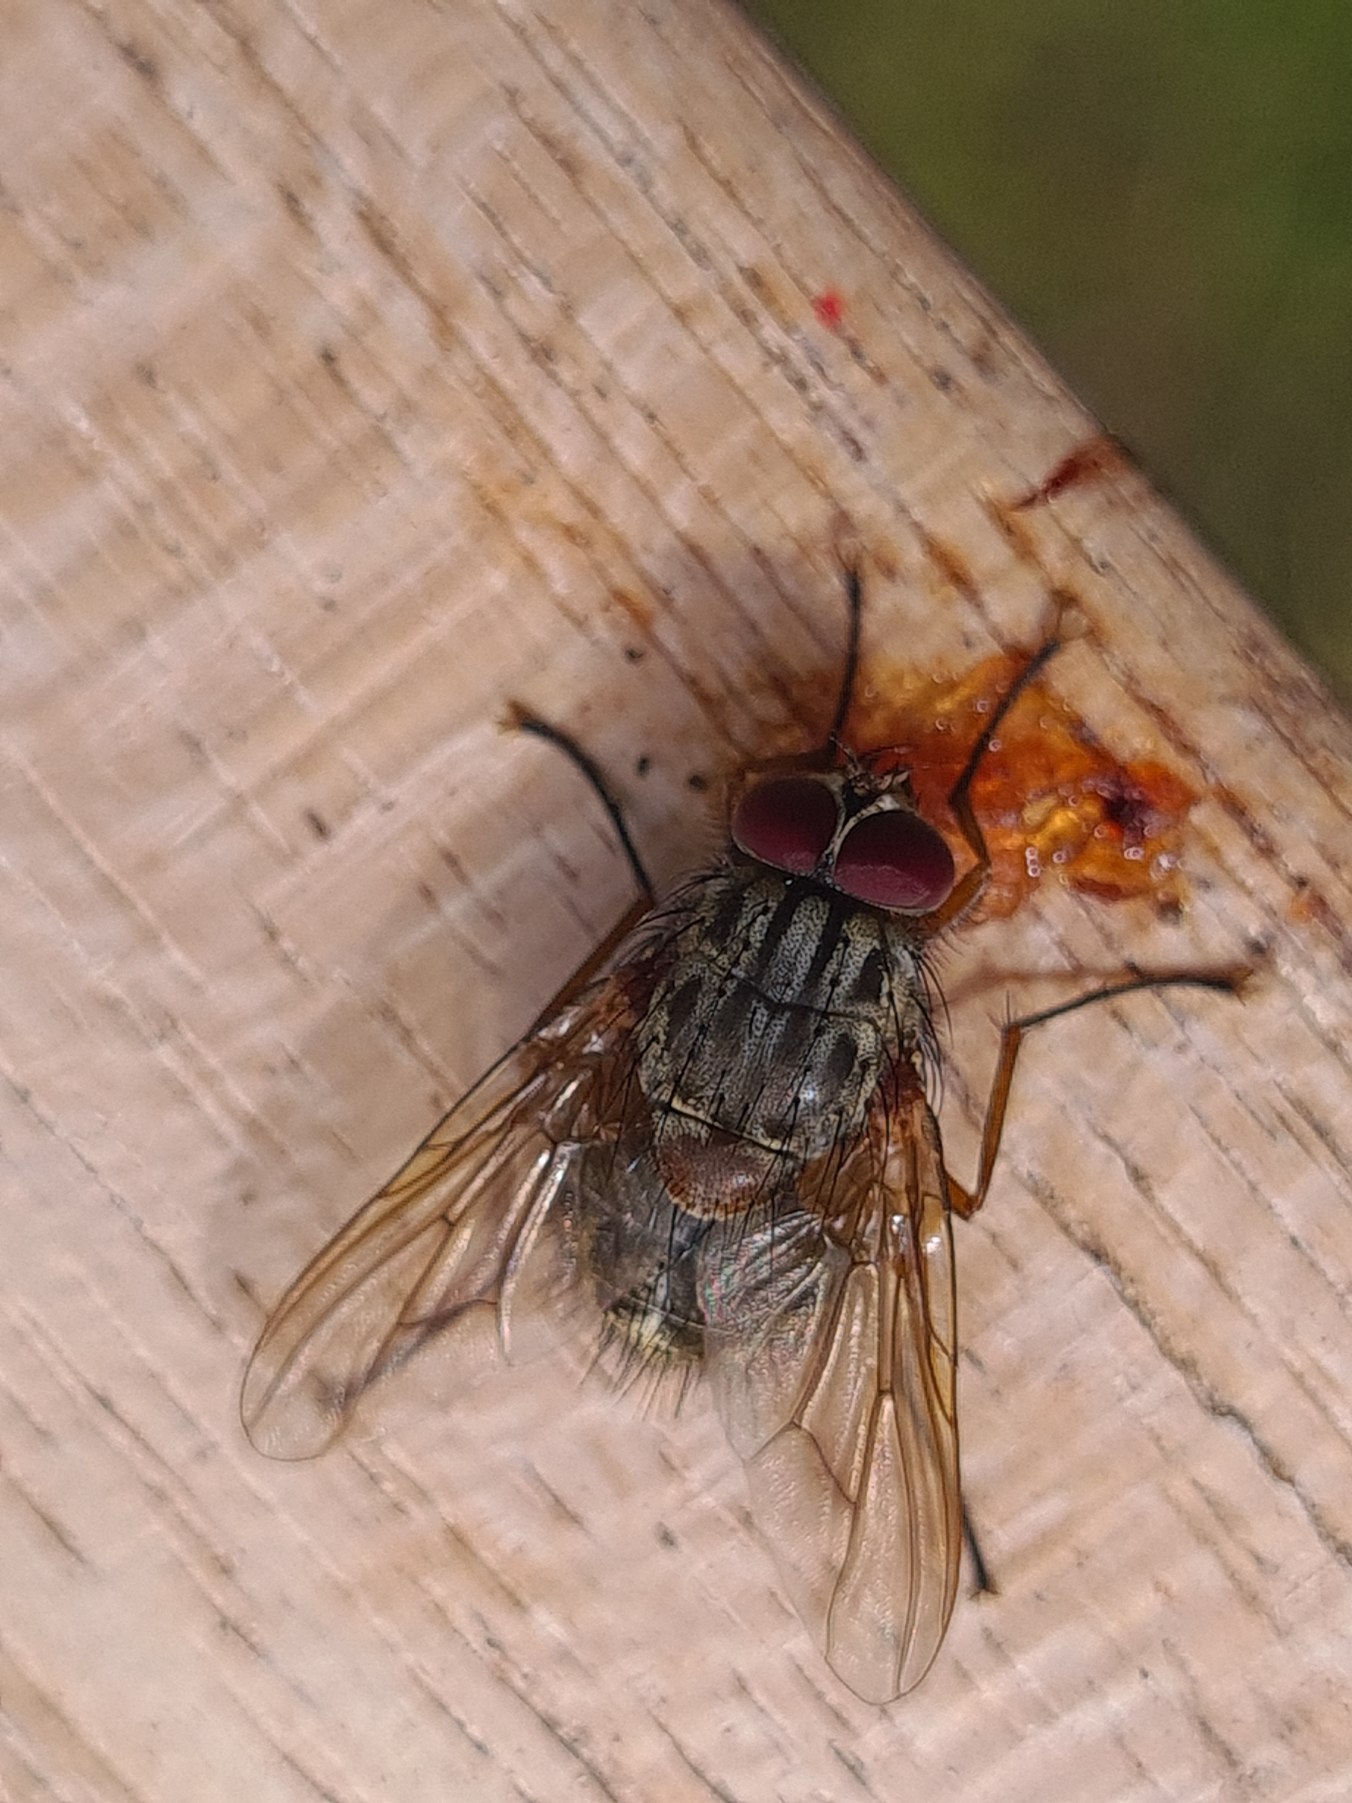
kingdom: Animalia
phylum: Arthropoda
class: Insecta
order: Diptera
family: Muscidae
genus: Phaonia
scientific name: Phaonia valida
